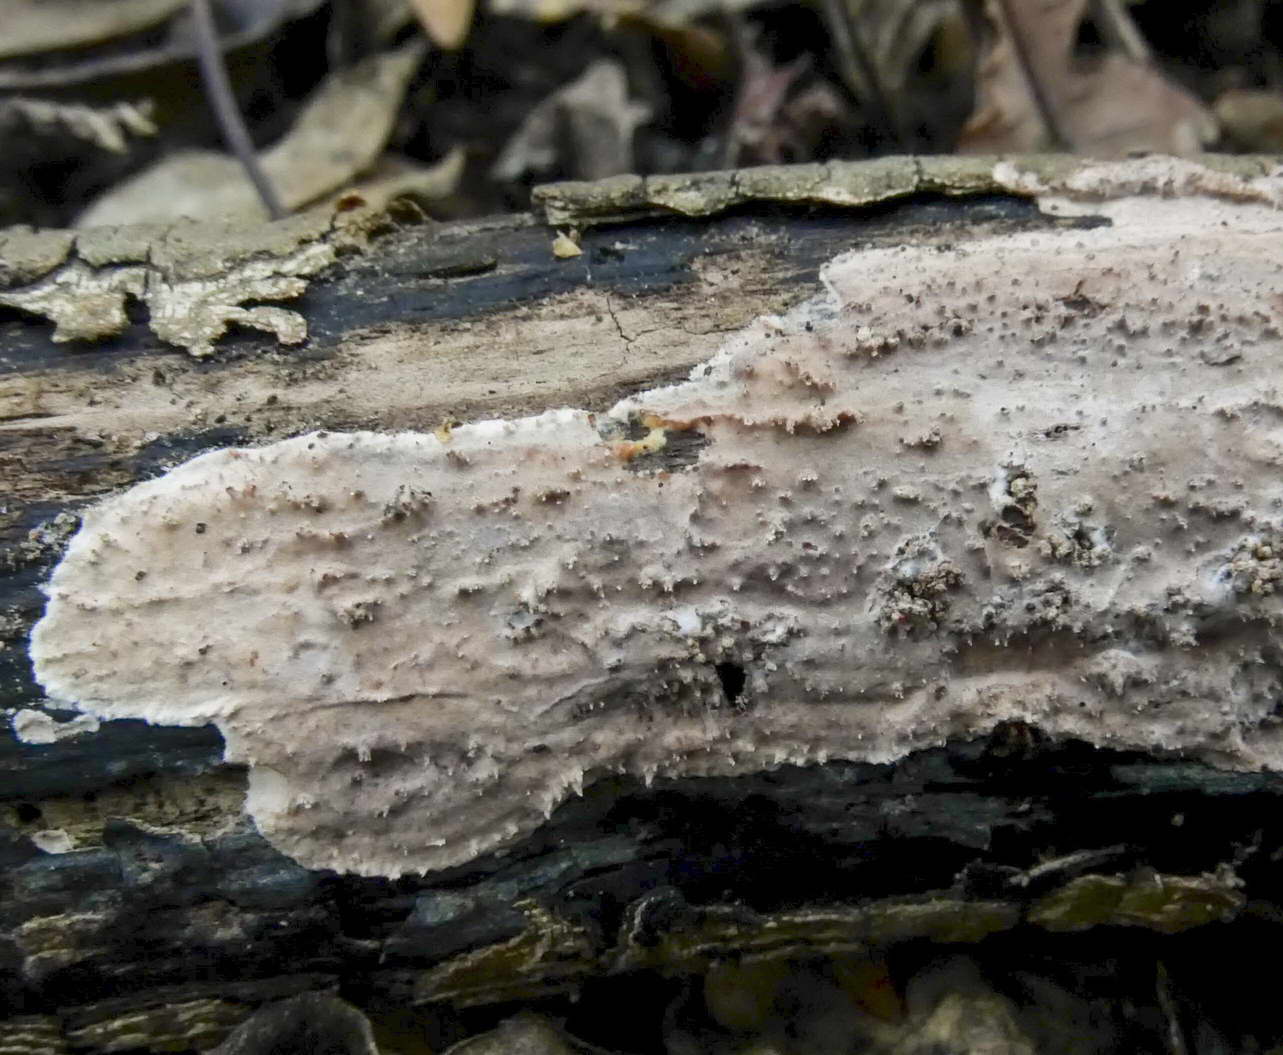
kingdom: Fungi
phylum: Basidiomycota
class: Agaricomycetes
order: Auriculariales
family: Auriculariaceae
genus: Heteroradulum
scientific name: Heteroradulum deglubens
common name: bævreskorpe
